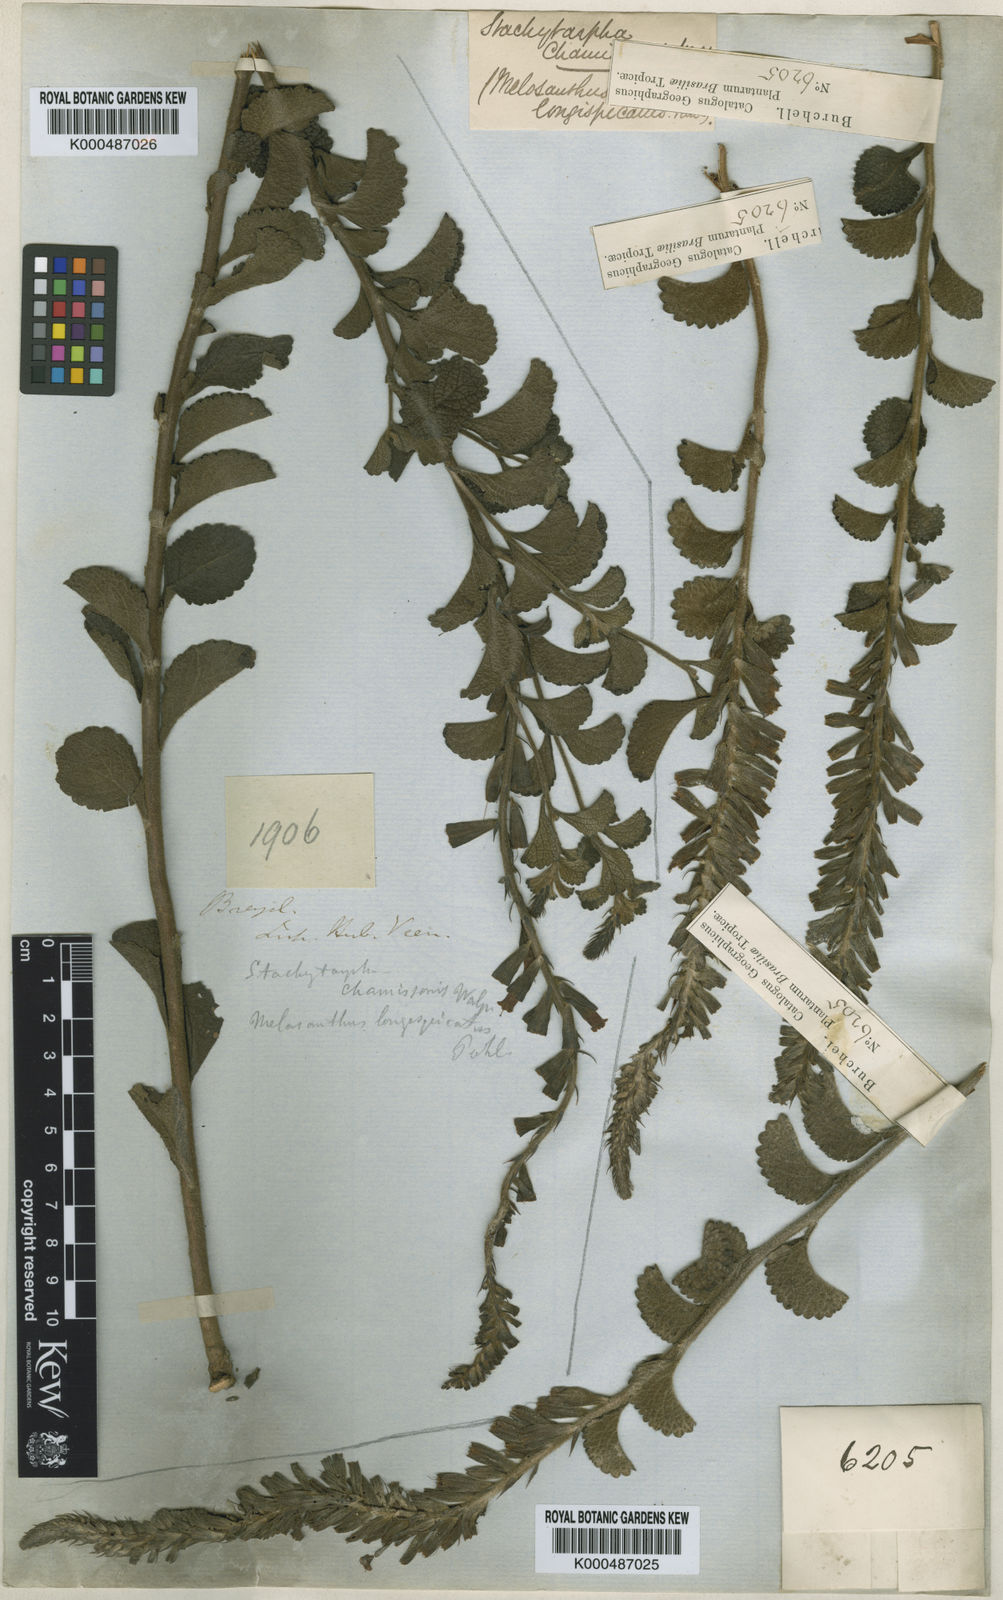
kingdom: Plantae
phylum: Tracheophyta
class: Magnoliopsida
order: Lamiales
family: Verbenaceae
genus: Stachytarpheta
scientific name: Stachytarpheta
